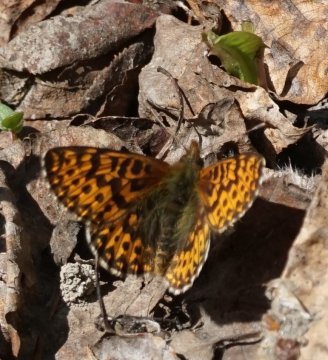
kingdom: Animalia
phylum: Arthropoda
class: Insecta
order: Lepidoptera
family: Nymphalidae
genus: Boloria
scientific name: Boloria freija
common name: Freija Fritillary
